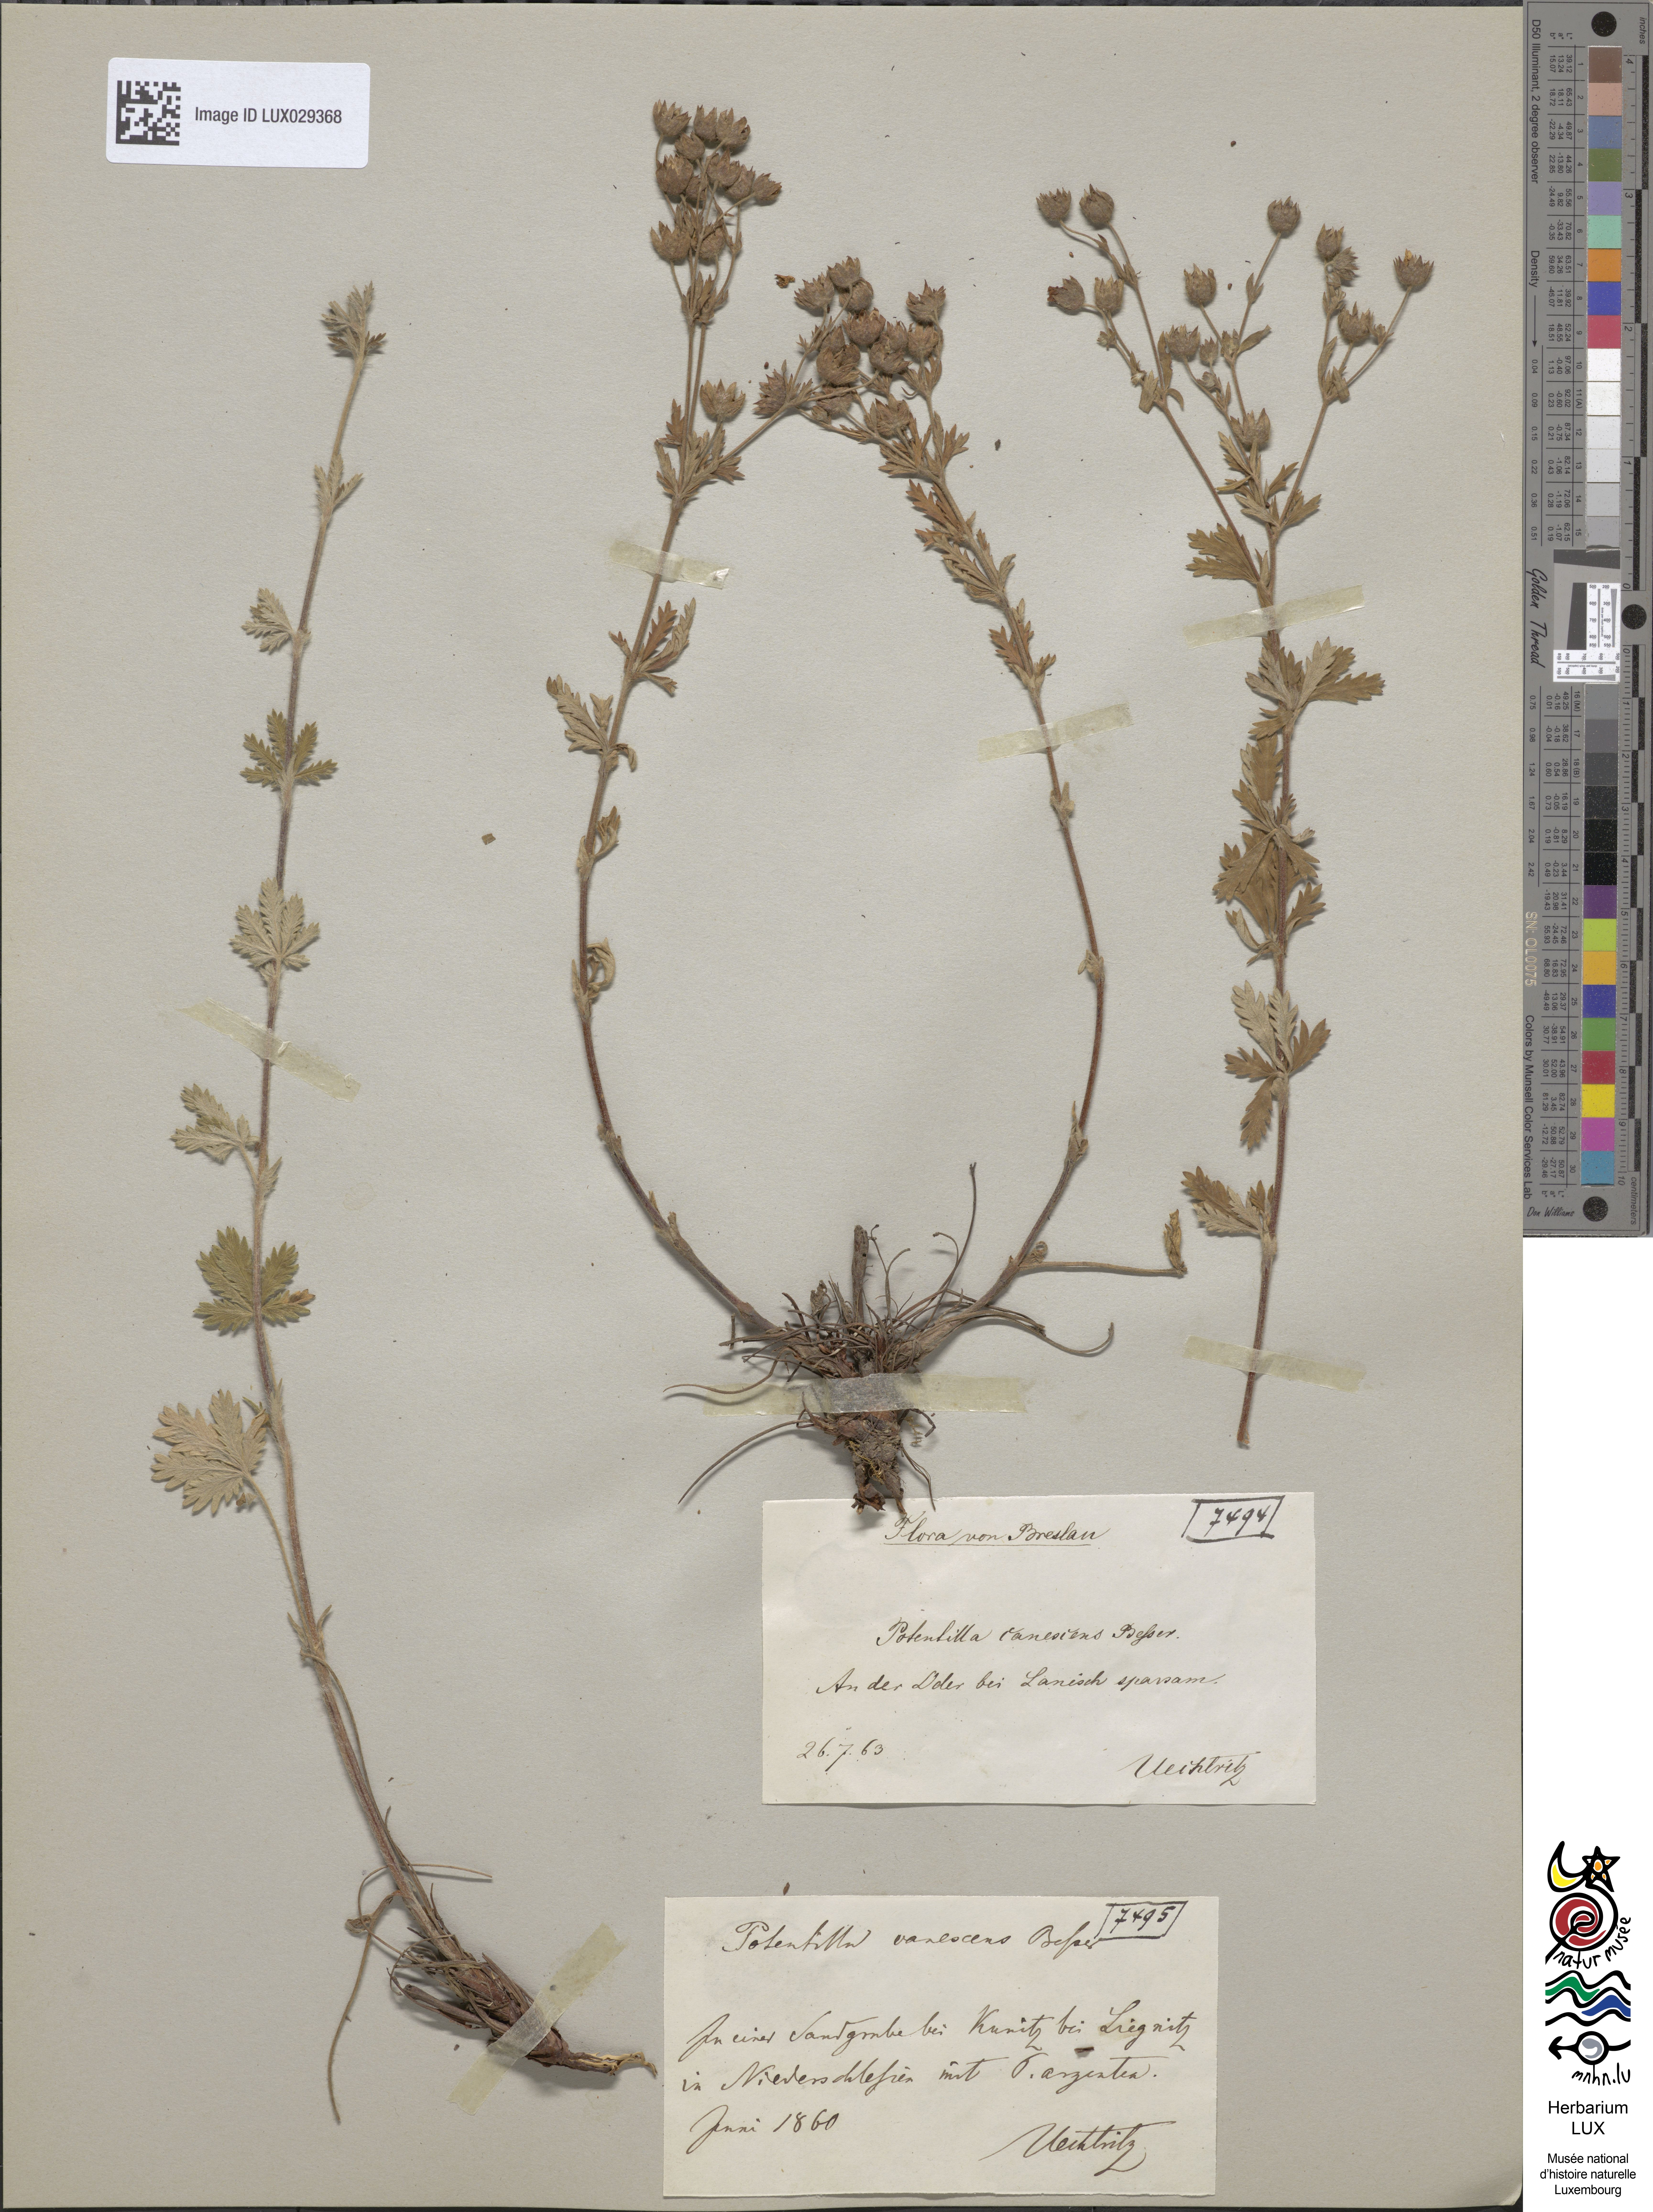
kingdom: Plantae
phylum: Tracheophyta
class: Magnoliopsida
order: Rosales
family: Rosaceae
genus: Potentilla
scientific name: Potentilla inclinata
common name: Grey cinquefoil
